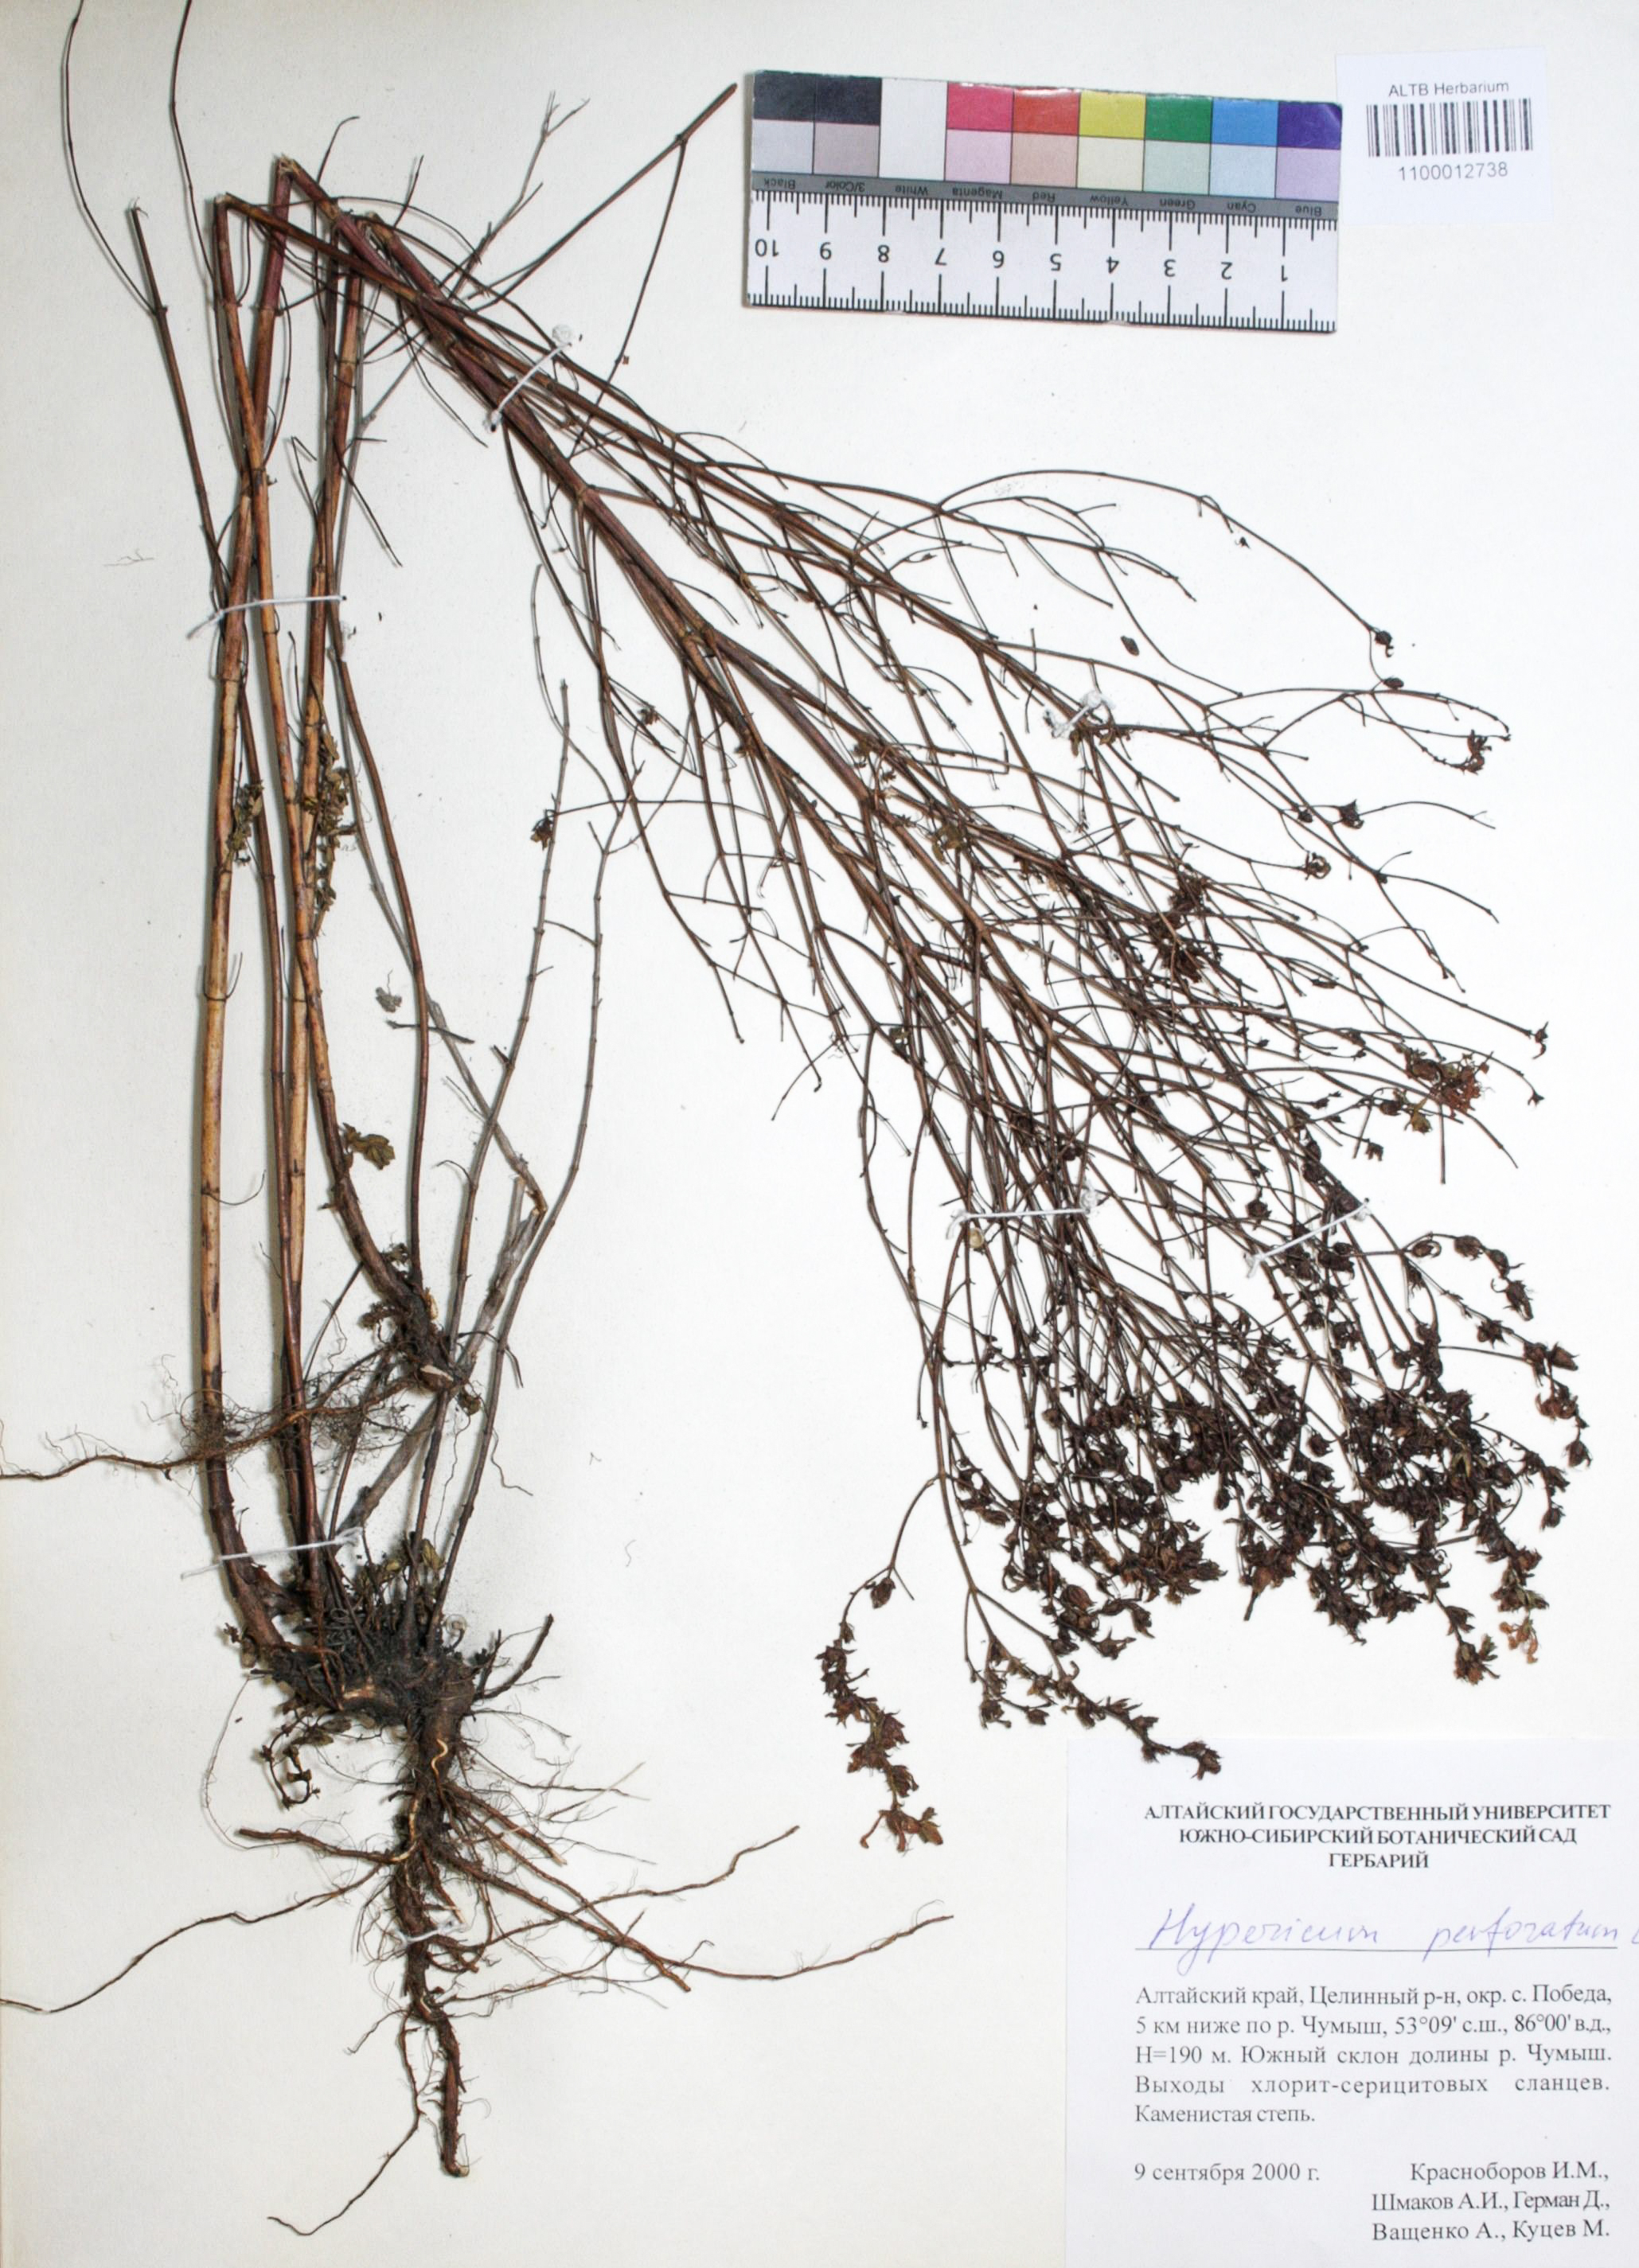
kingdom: Plantae
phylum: Tracheophyta
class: Magnoliopsida
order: Malpighiales
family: Hypericaceae
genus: Hypericum
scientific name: Hypericum perforatum
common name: Common st. johnswort
